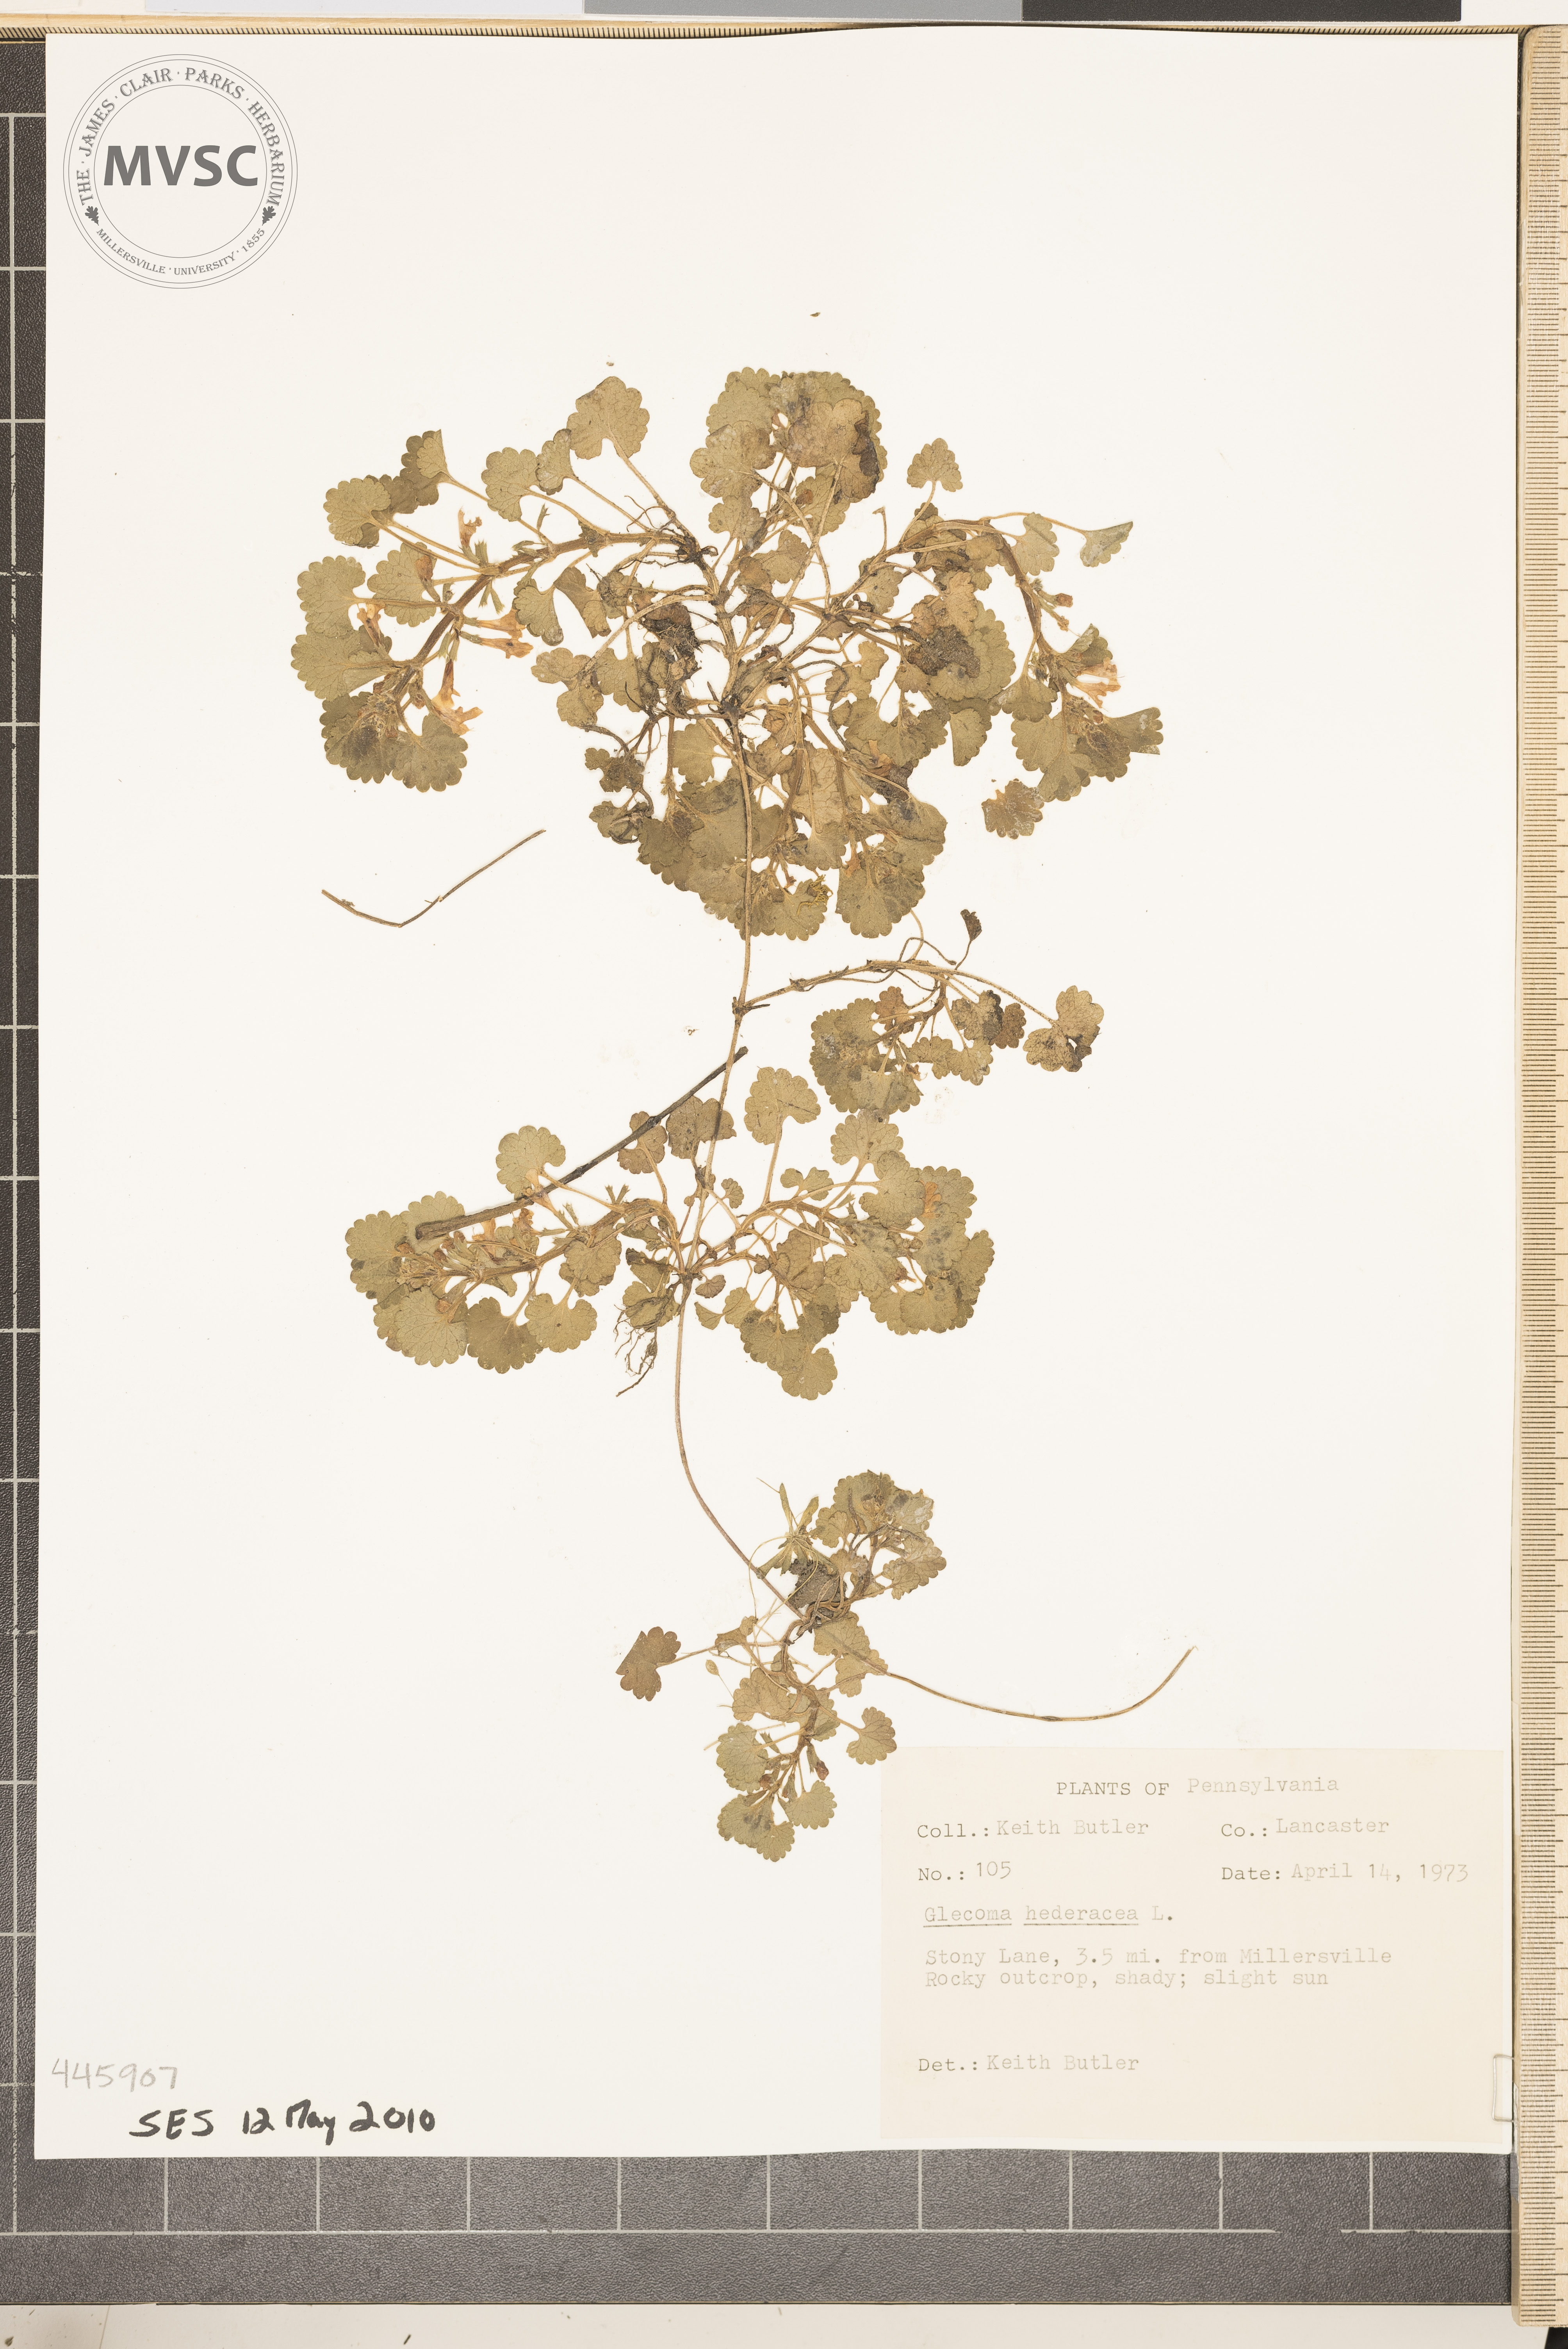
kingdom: Plantae
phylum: Tracheophyta
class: Magnoliopsida
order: Lamiales
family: Lamiaceae
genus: Glechoma
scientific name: Glechoma hederacea
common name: Ground ivy
